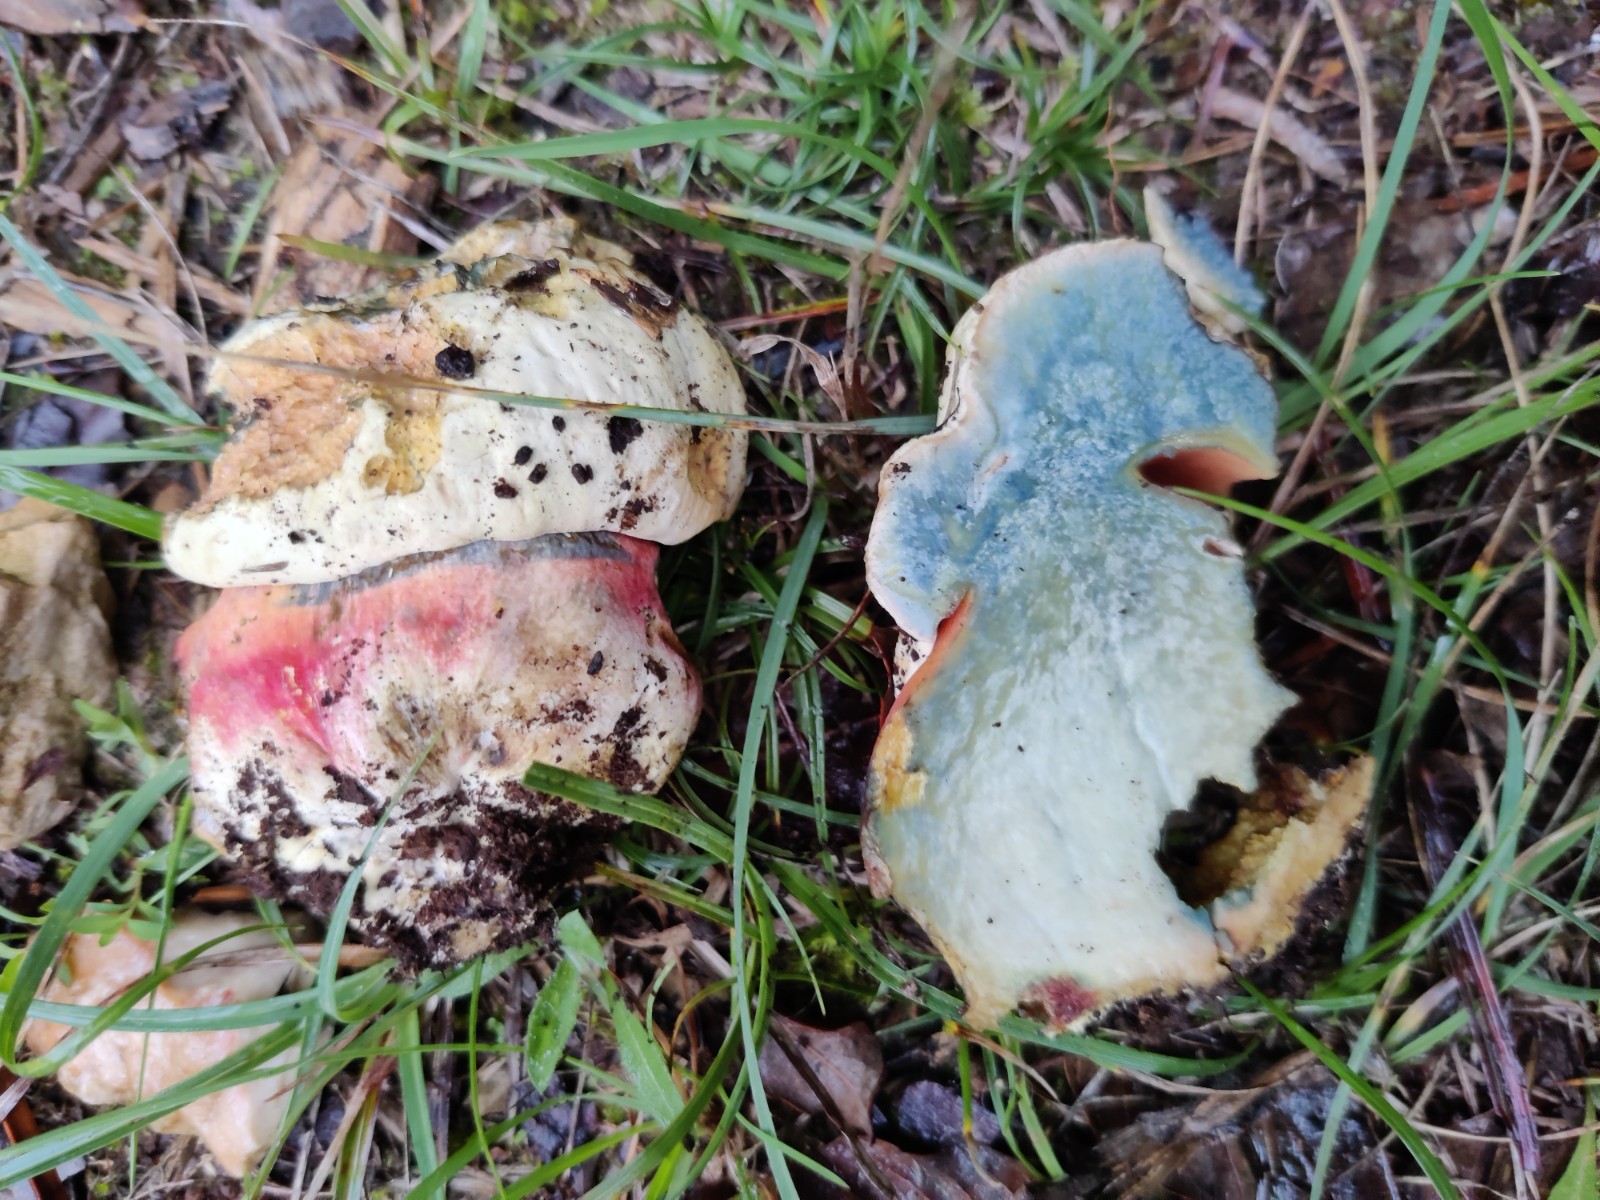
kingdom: Fungi
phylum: Basidiomycota
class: Agaricomycetes
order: Boletales
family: Boletaceae
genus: Rubroboletus
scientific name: Rubroboletus satanas
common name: Satans rørhat
